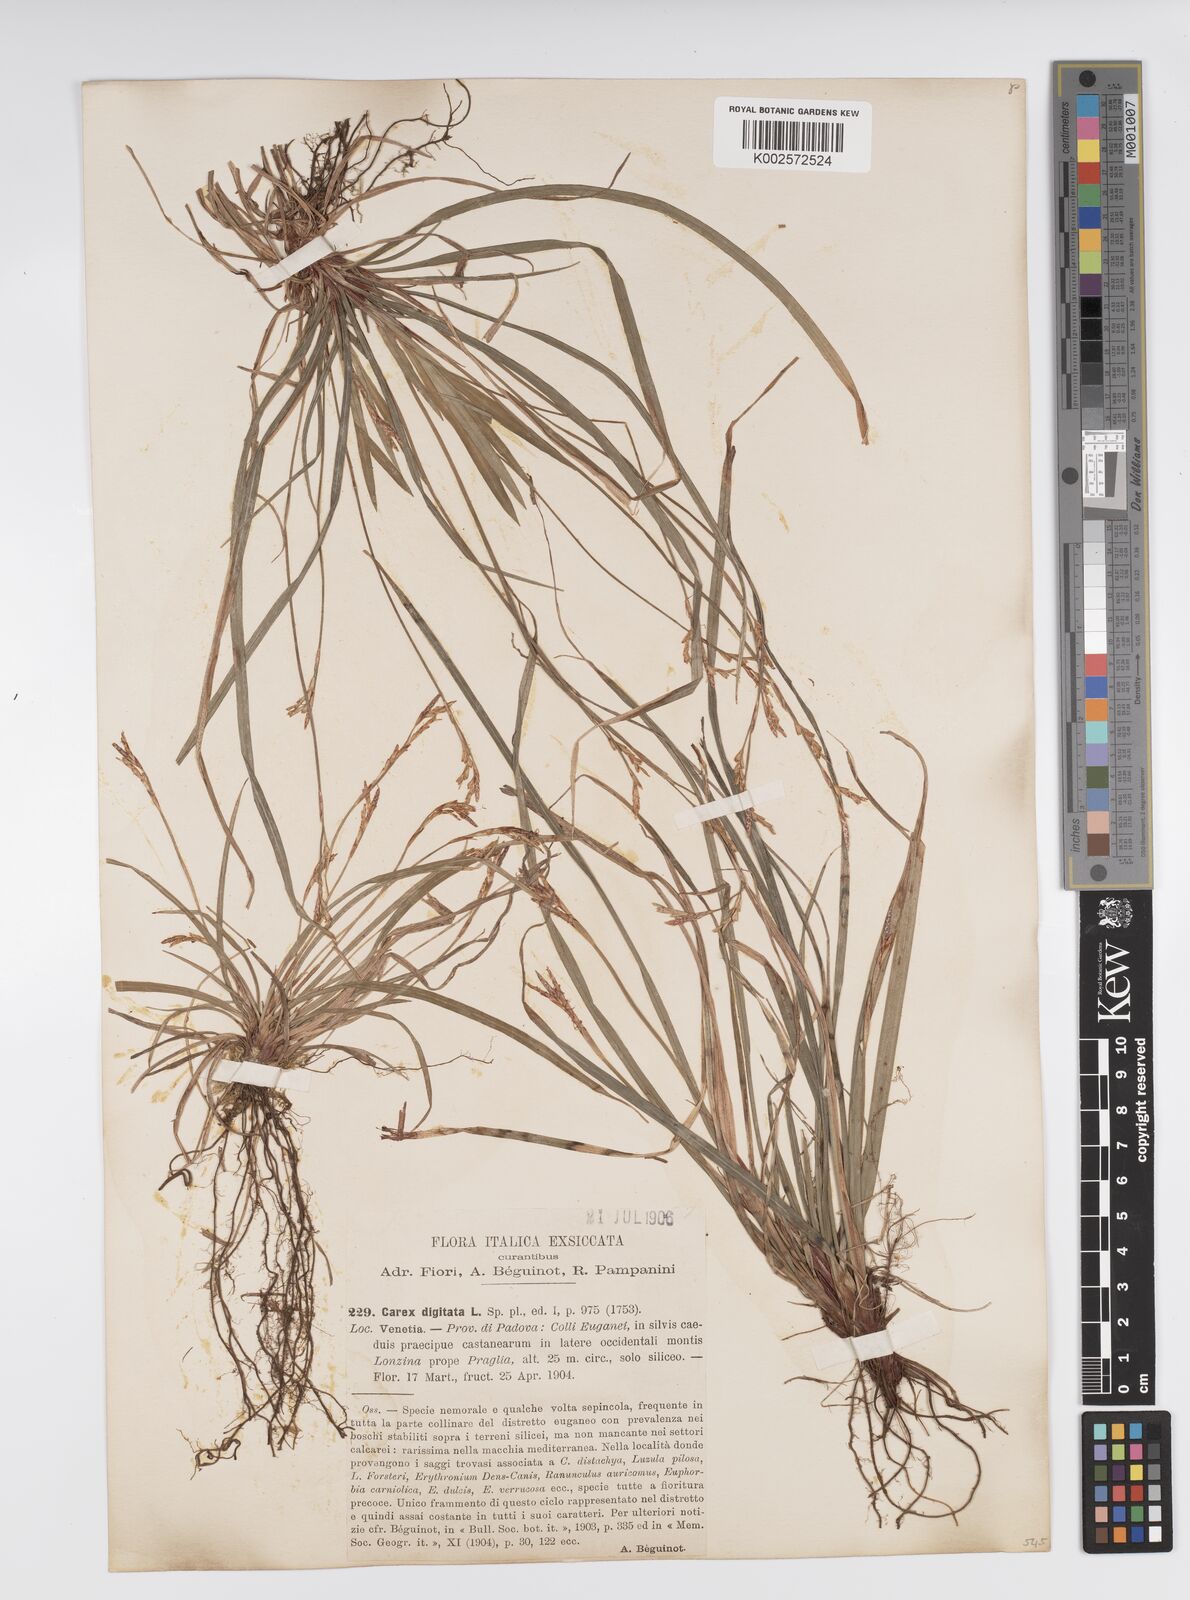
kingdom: Plantae
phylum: Tracheophyta
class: Liliopsida
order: Poales
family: Cyperaceae
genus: Carex
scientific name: Carex digitata
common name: Fingered sedge
